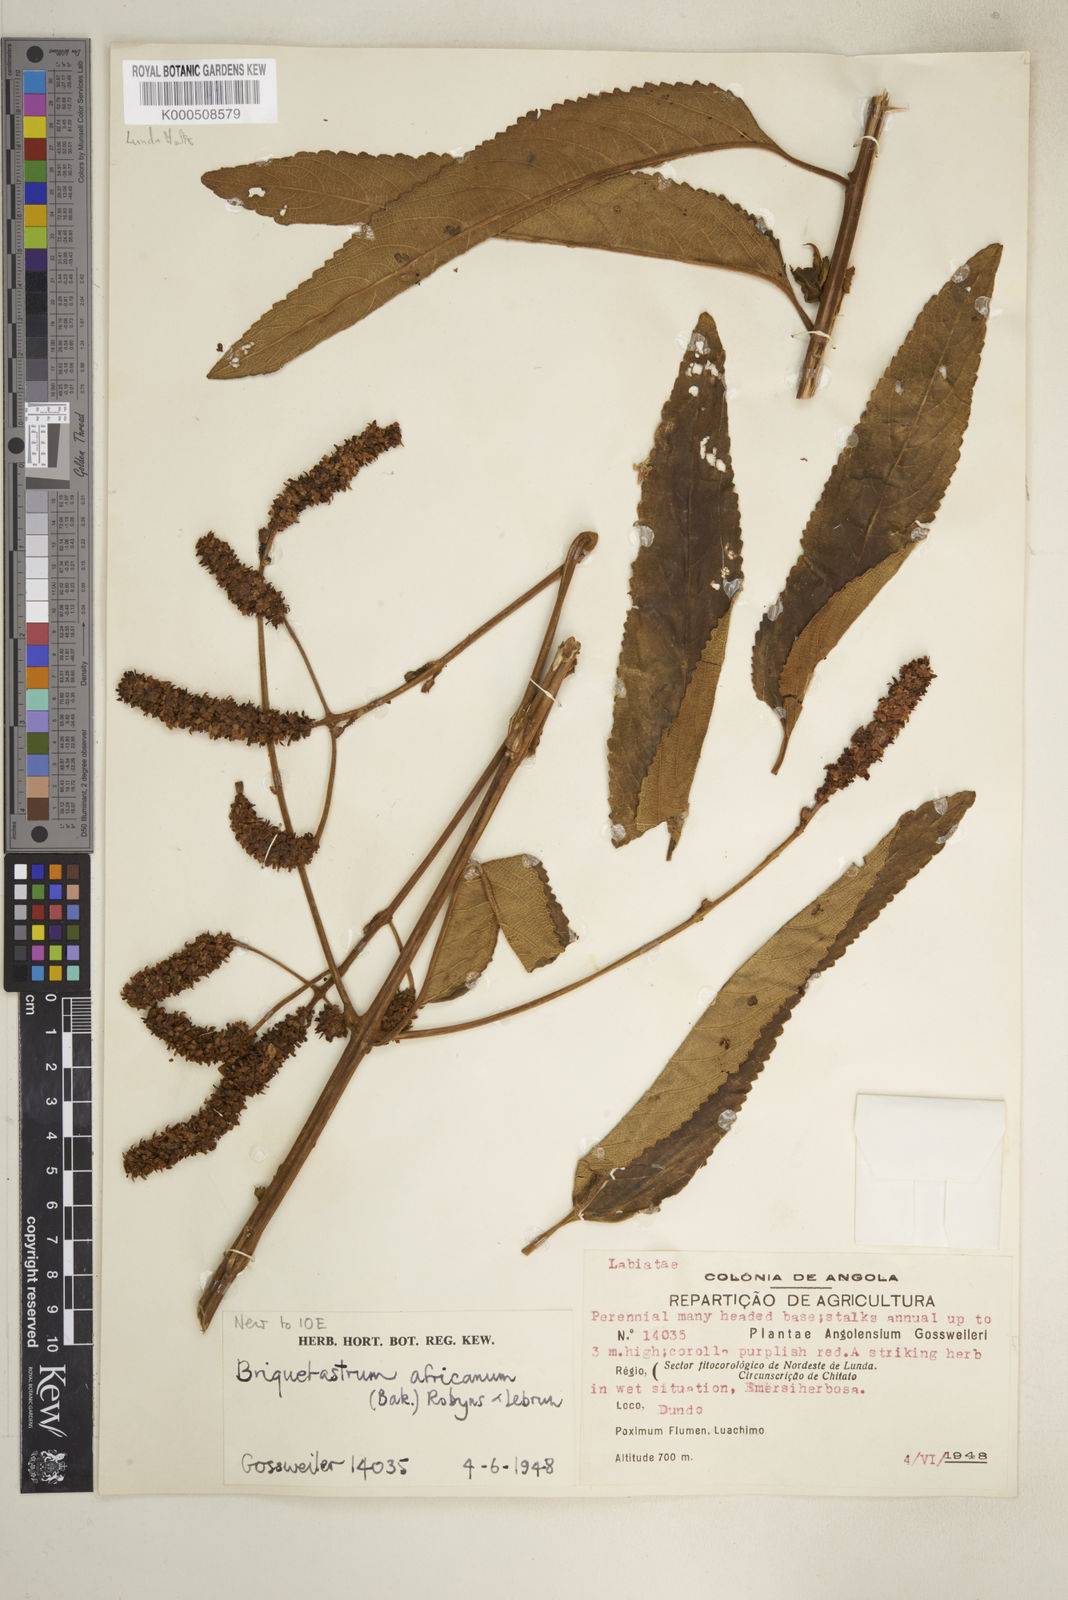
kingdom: Plantae
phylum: Tracheophyta
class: Magnoliopsida
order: Lamiales
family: Lamiaceae
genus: Coleus
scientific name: Coleus engleri
